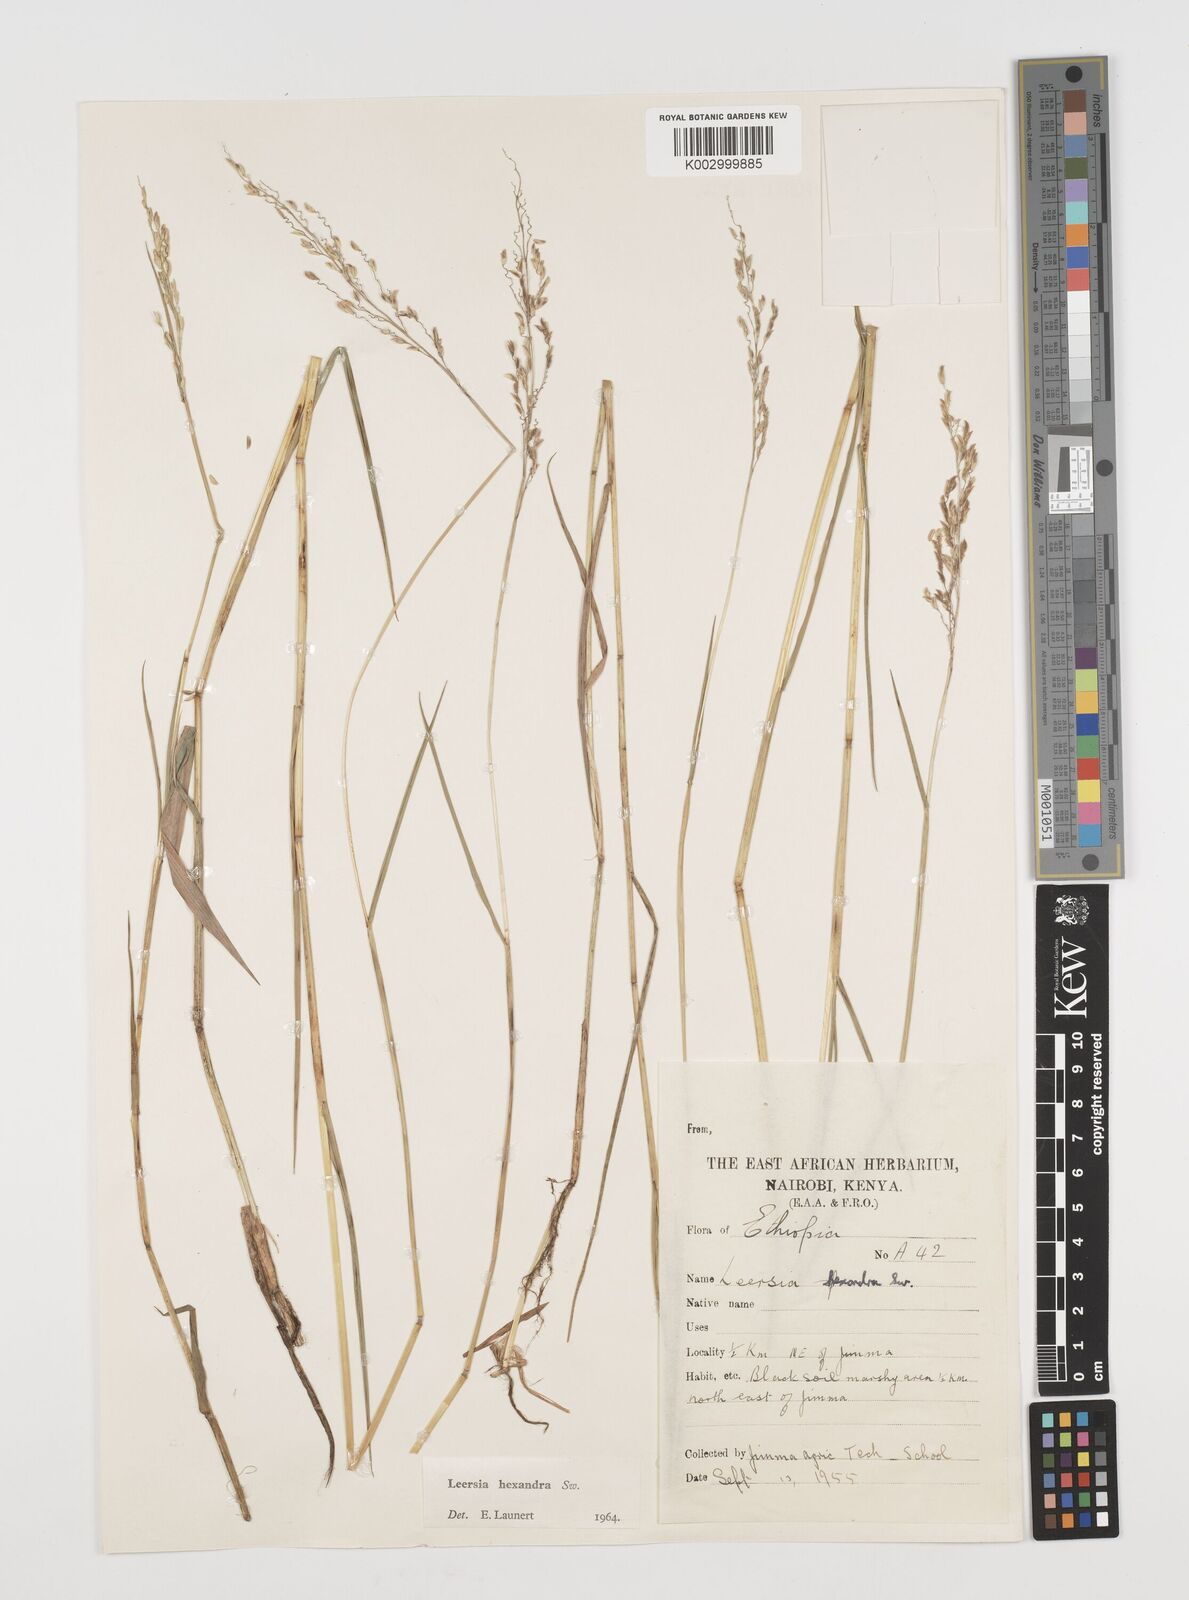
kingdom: Plantae
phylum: Tracheophyta
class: Liliopsida
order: Poales
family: Poaceae
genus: Leersia
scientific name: Leersia hexandra
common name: Southern cut grass
